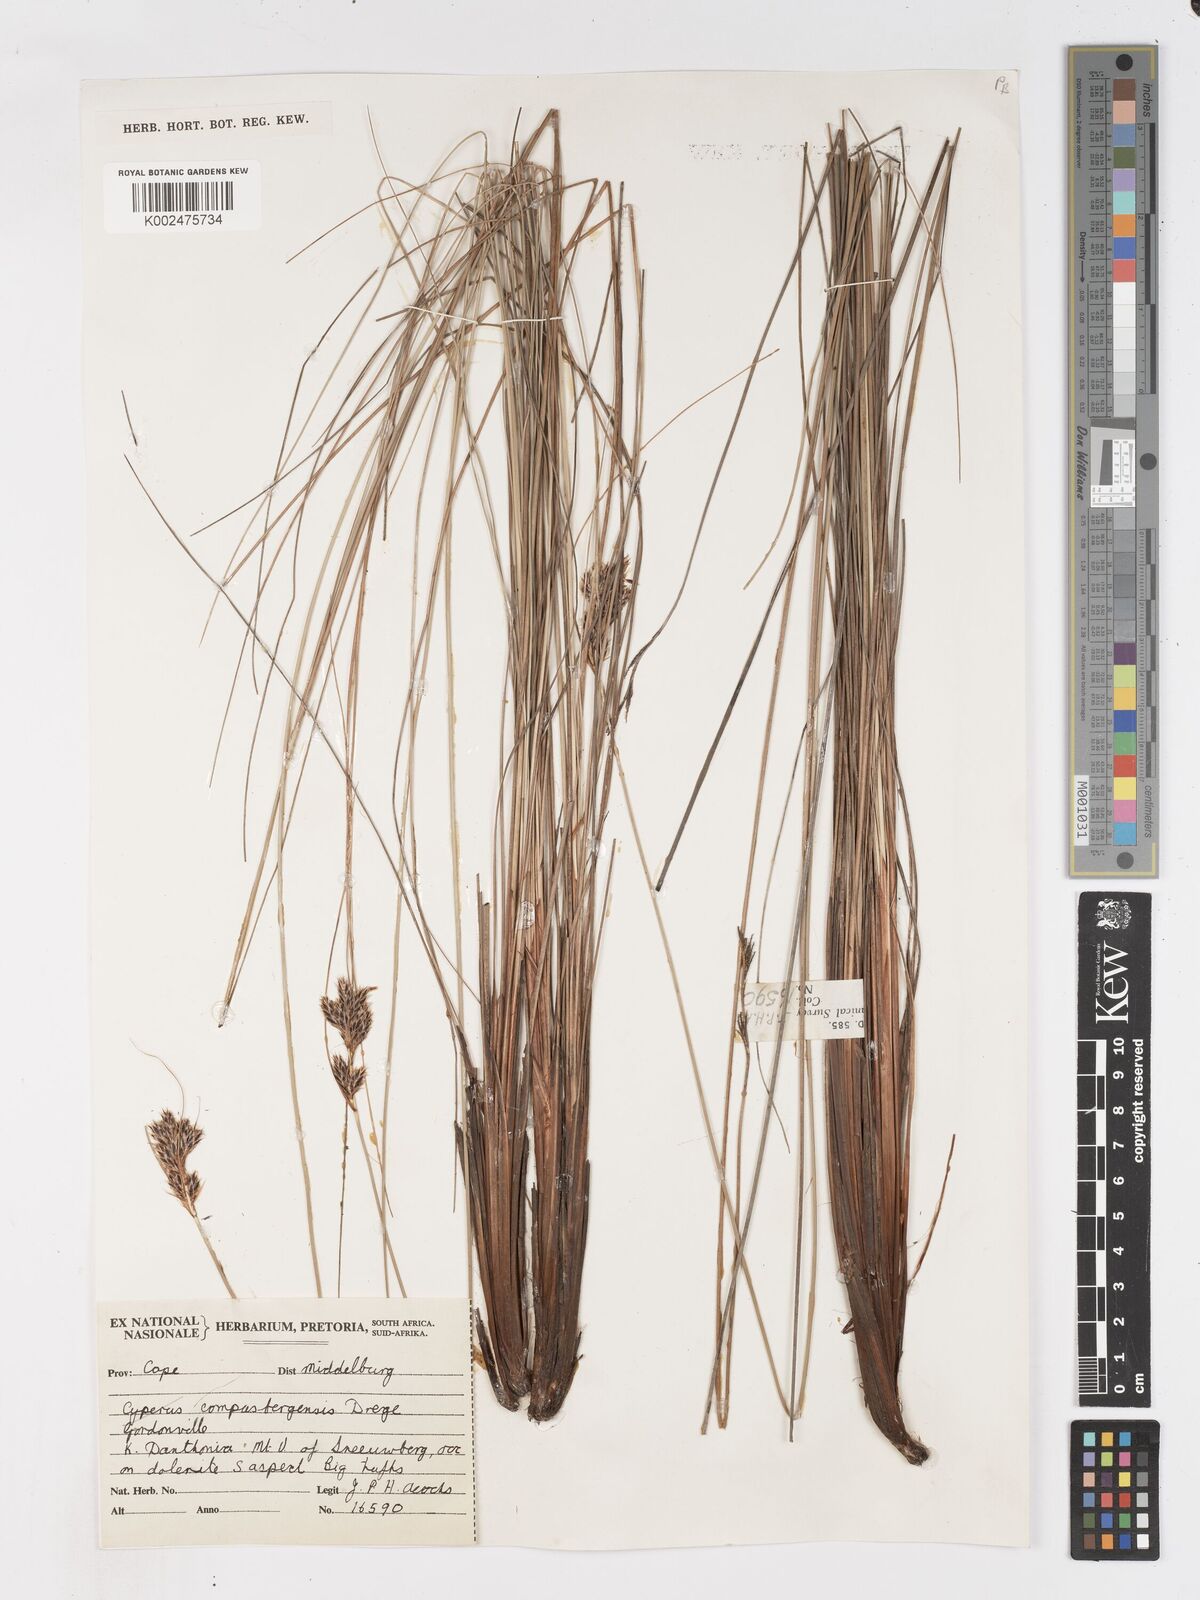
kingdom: Plantae
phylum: Tracheophyta
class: Liliopsida
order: Poales
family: Cyperaceae
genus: Ficinia
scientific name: Ficinia compasbergensis
